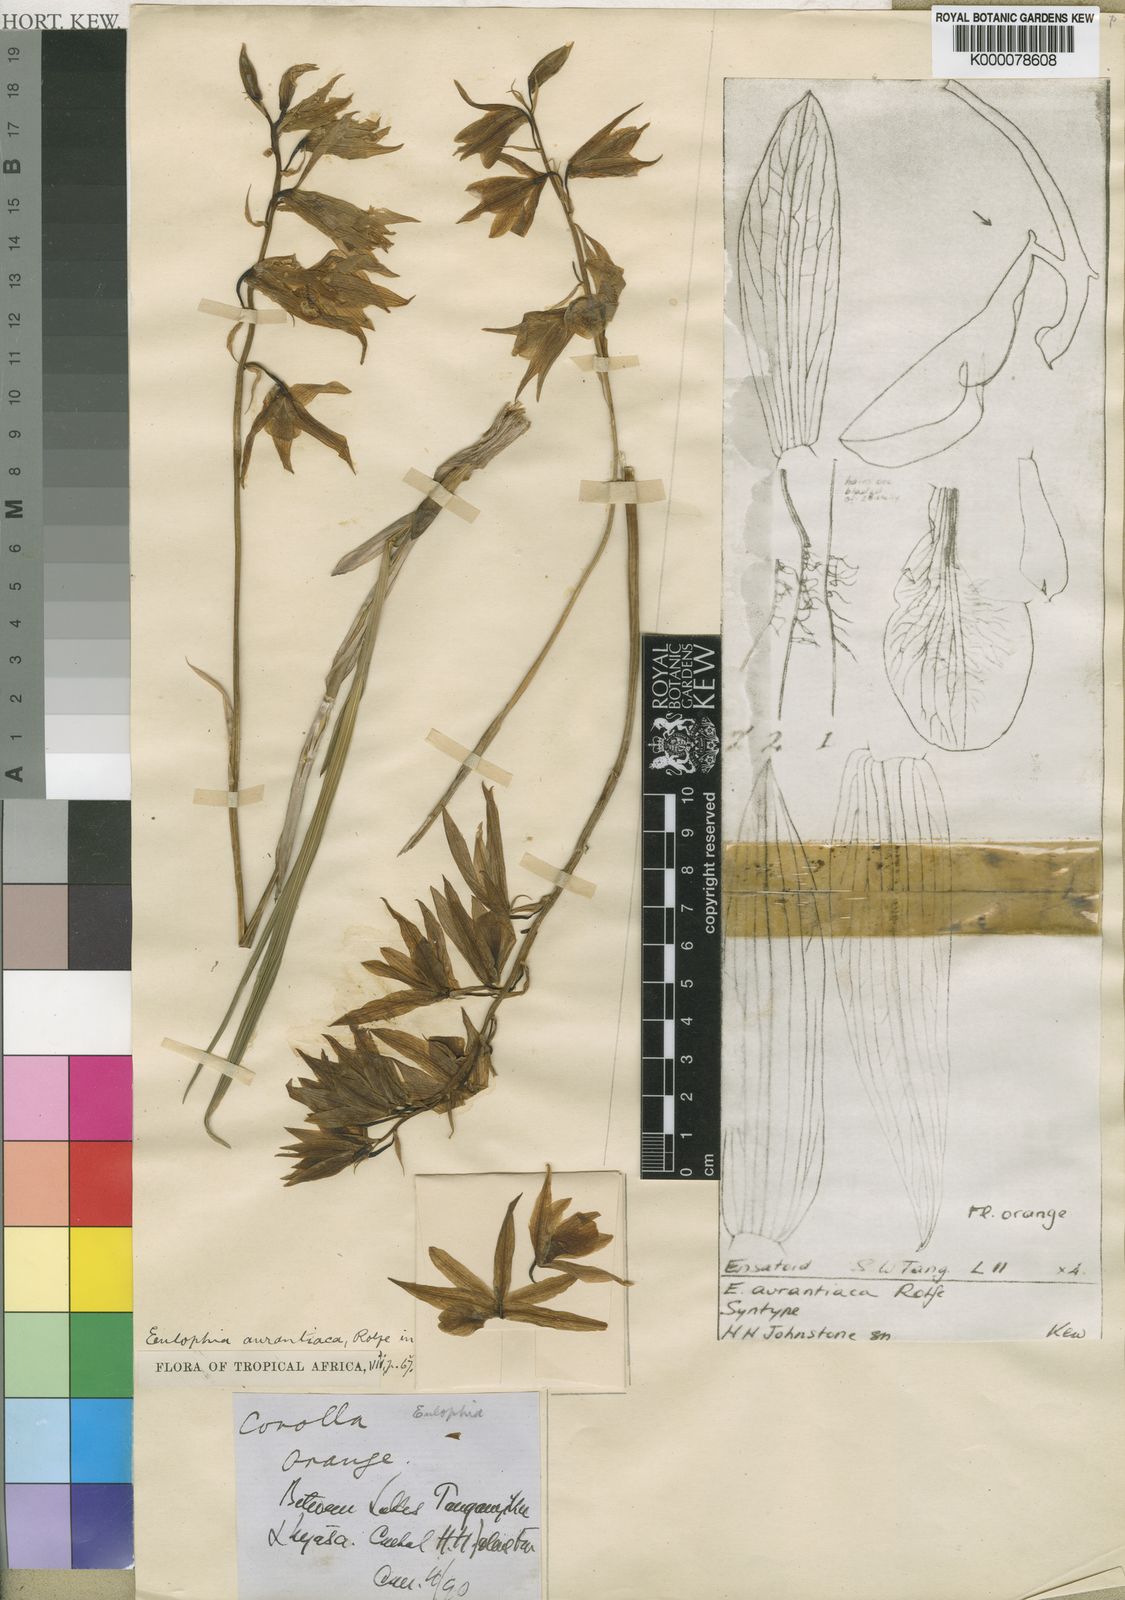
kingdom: Plantae
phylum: Tracheophyta
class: Liliopsida
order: Asparagales
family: Orchidaceae
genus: Eulophia
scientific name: Eulophia aurantiaca
